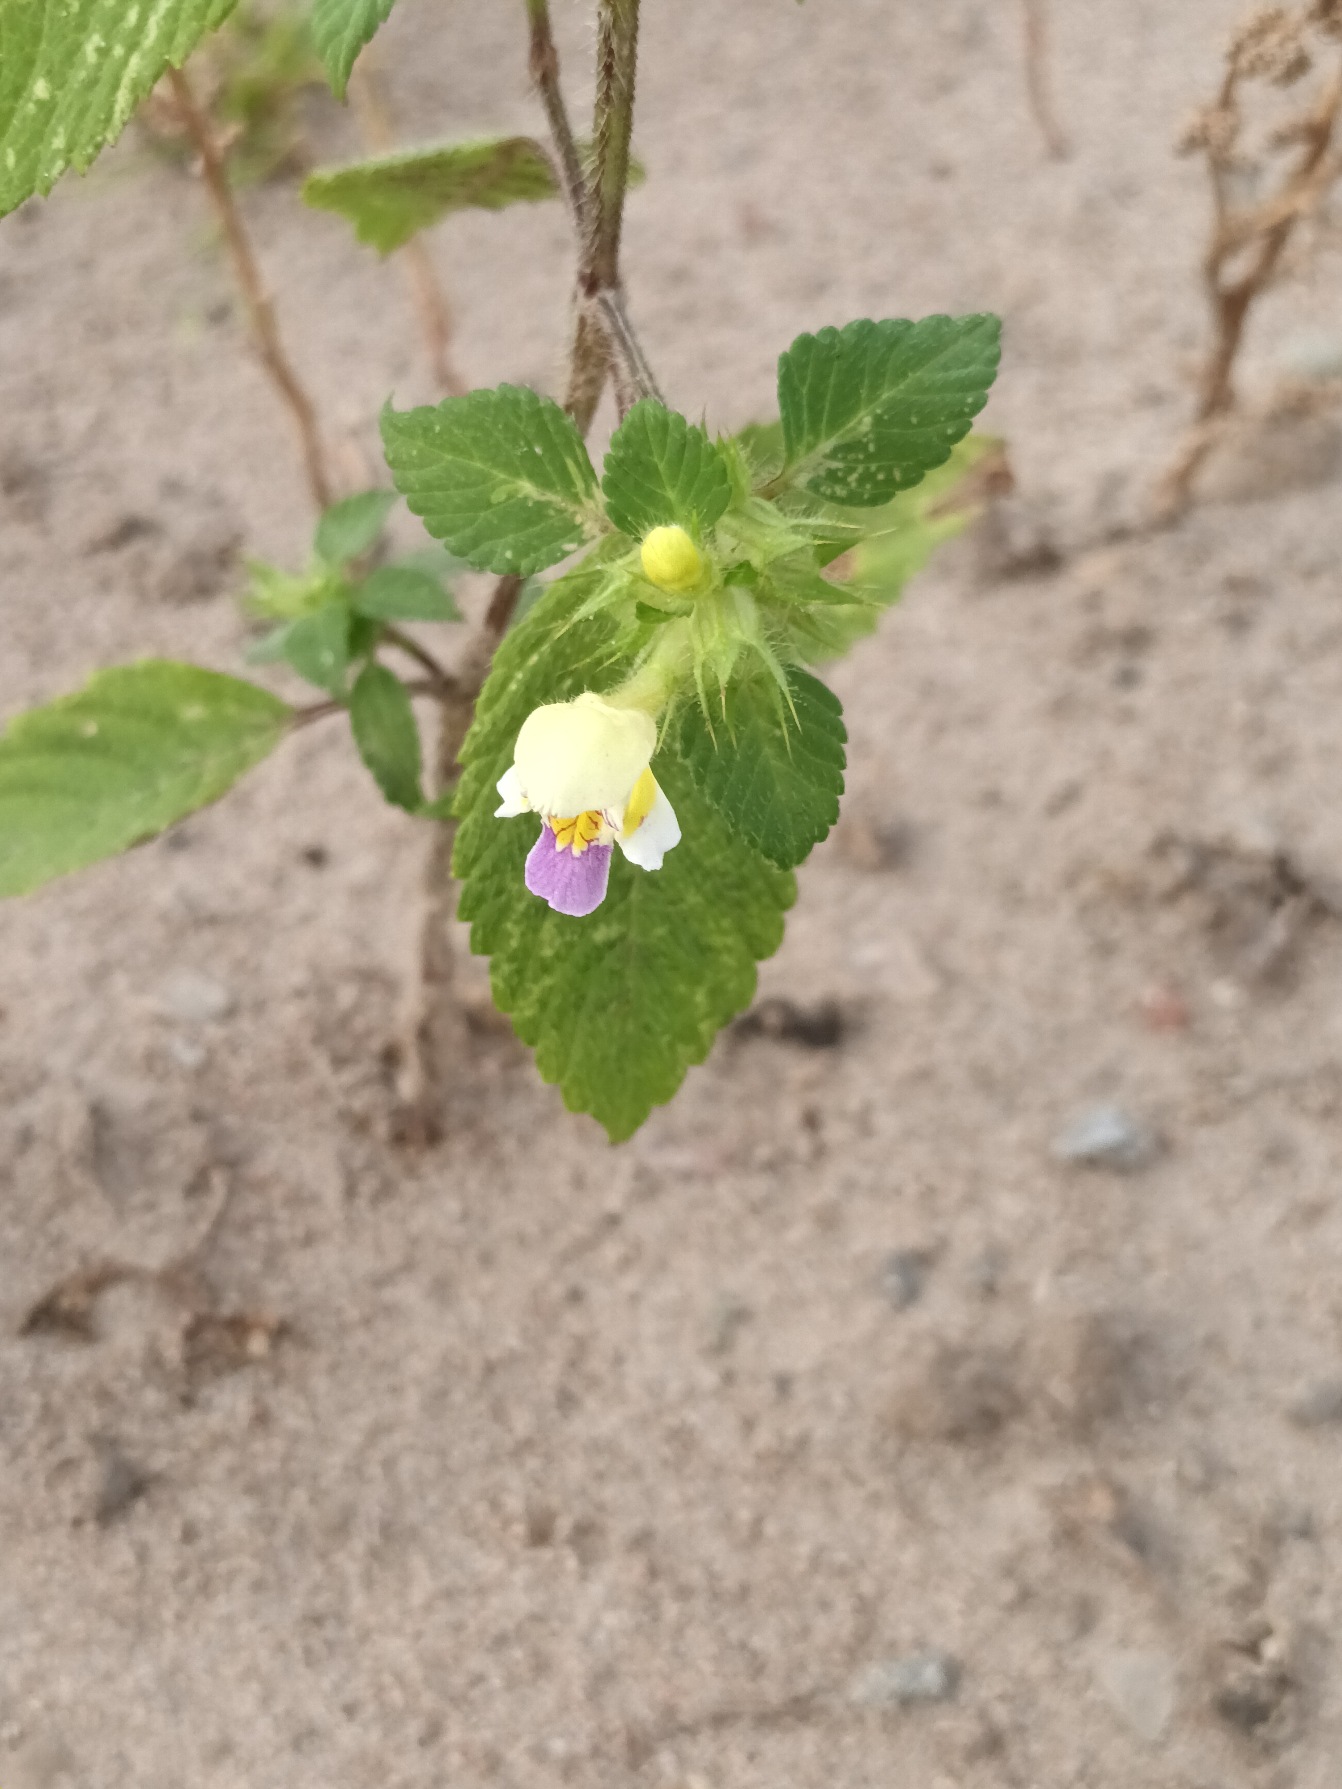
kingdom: Plantae
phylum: Tracheophyta
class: Magnoliopsida
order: Lamiales
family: Lamiaceae
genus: Galeopsis
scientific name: Galeopsis speciosa
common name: Hamp-hanekro
